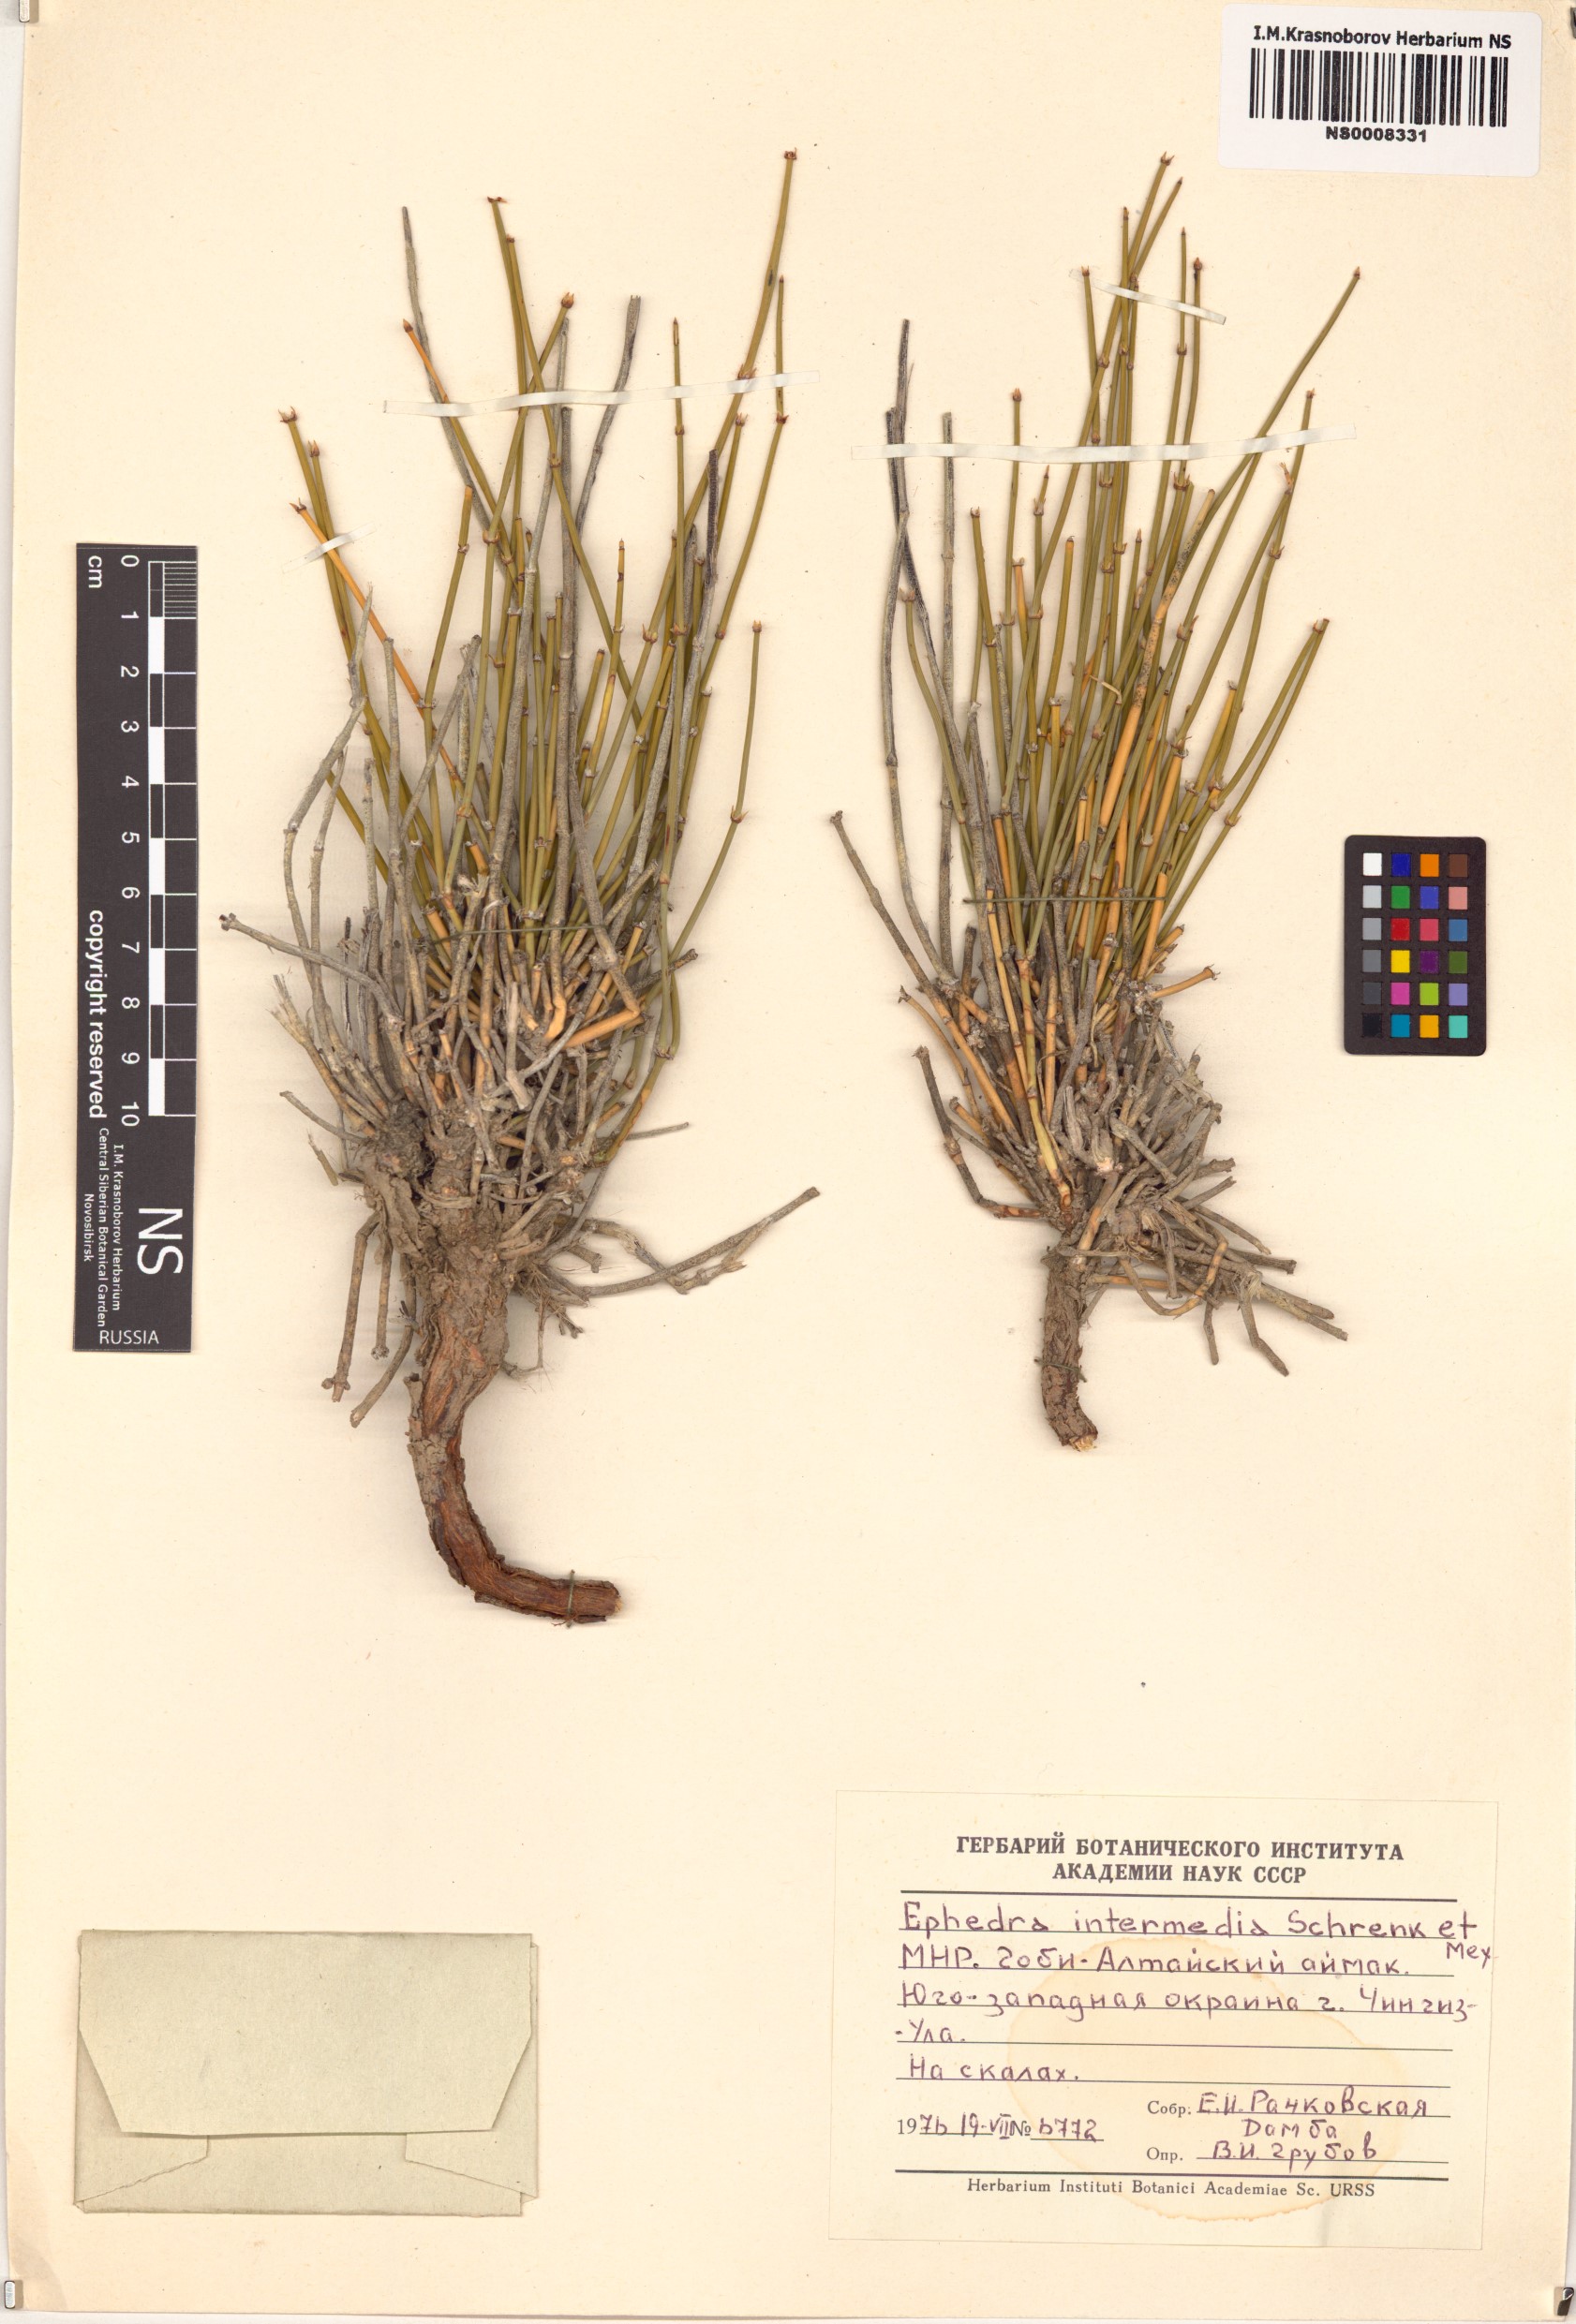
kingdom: Plantae
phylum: Tracheophyta
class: Gnetopsida
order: Ephedrales
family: Ephedraceae
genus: Ephedra
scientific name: Ephedra intermedia
